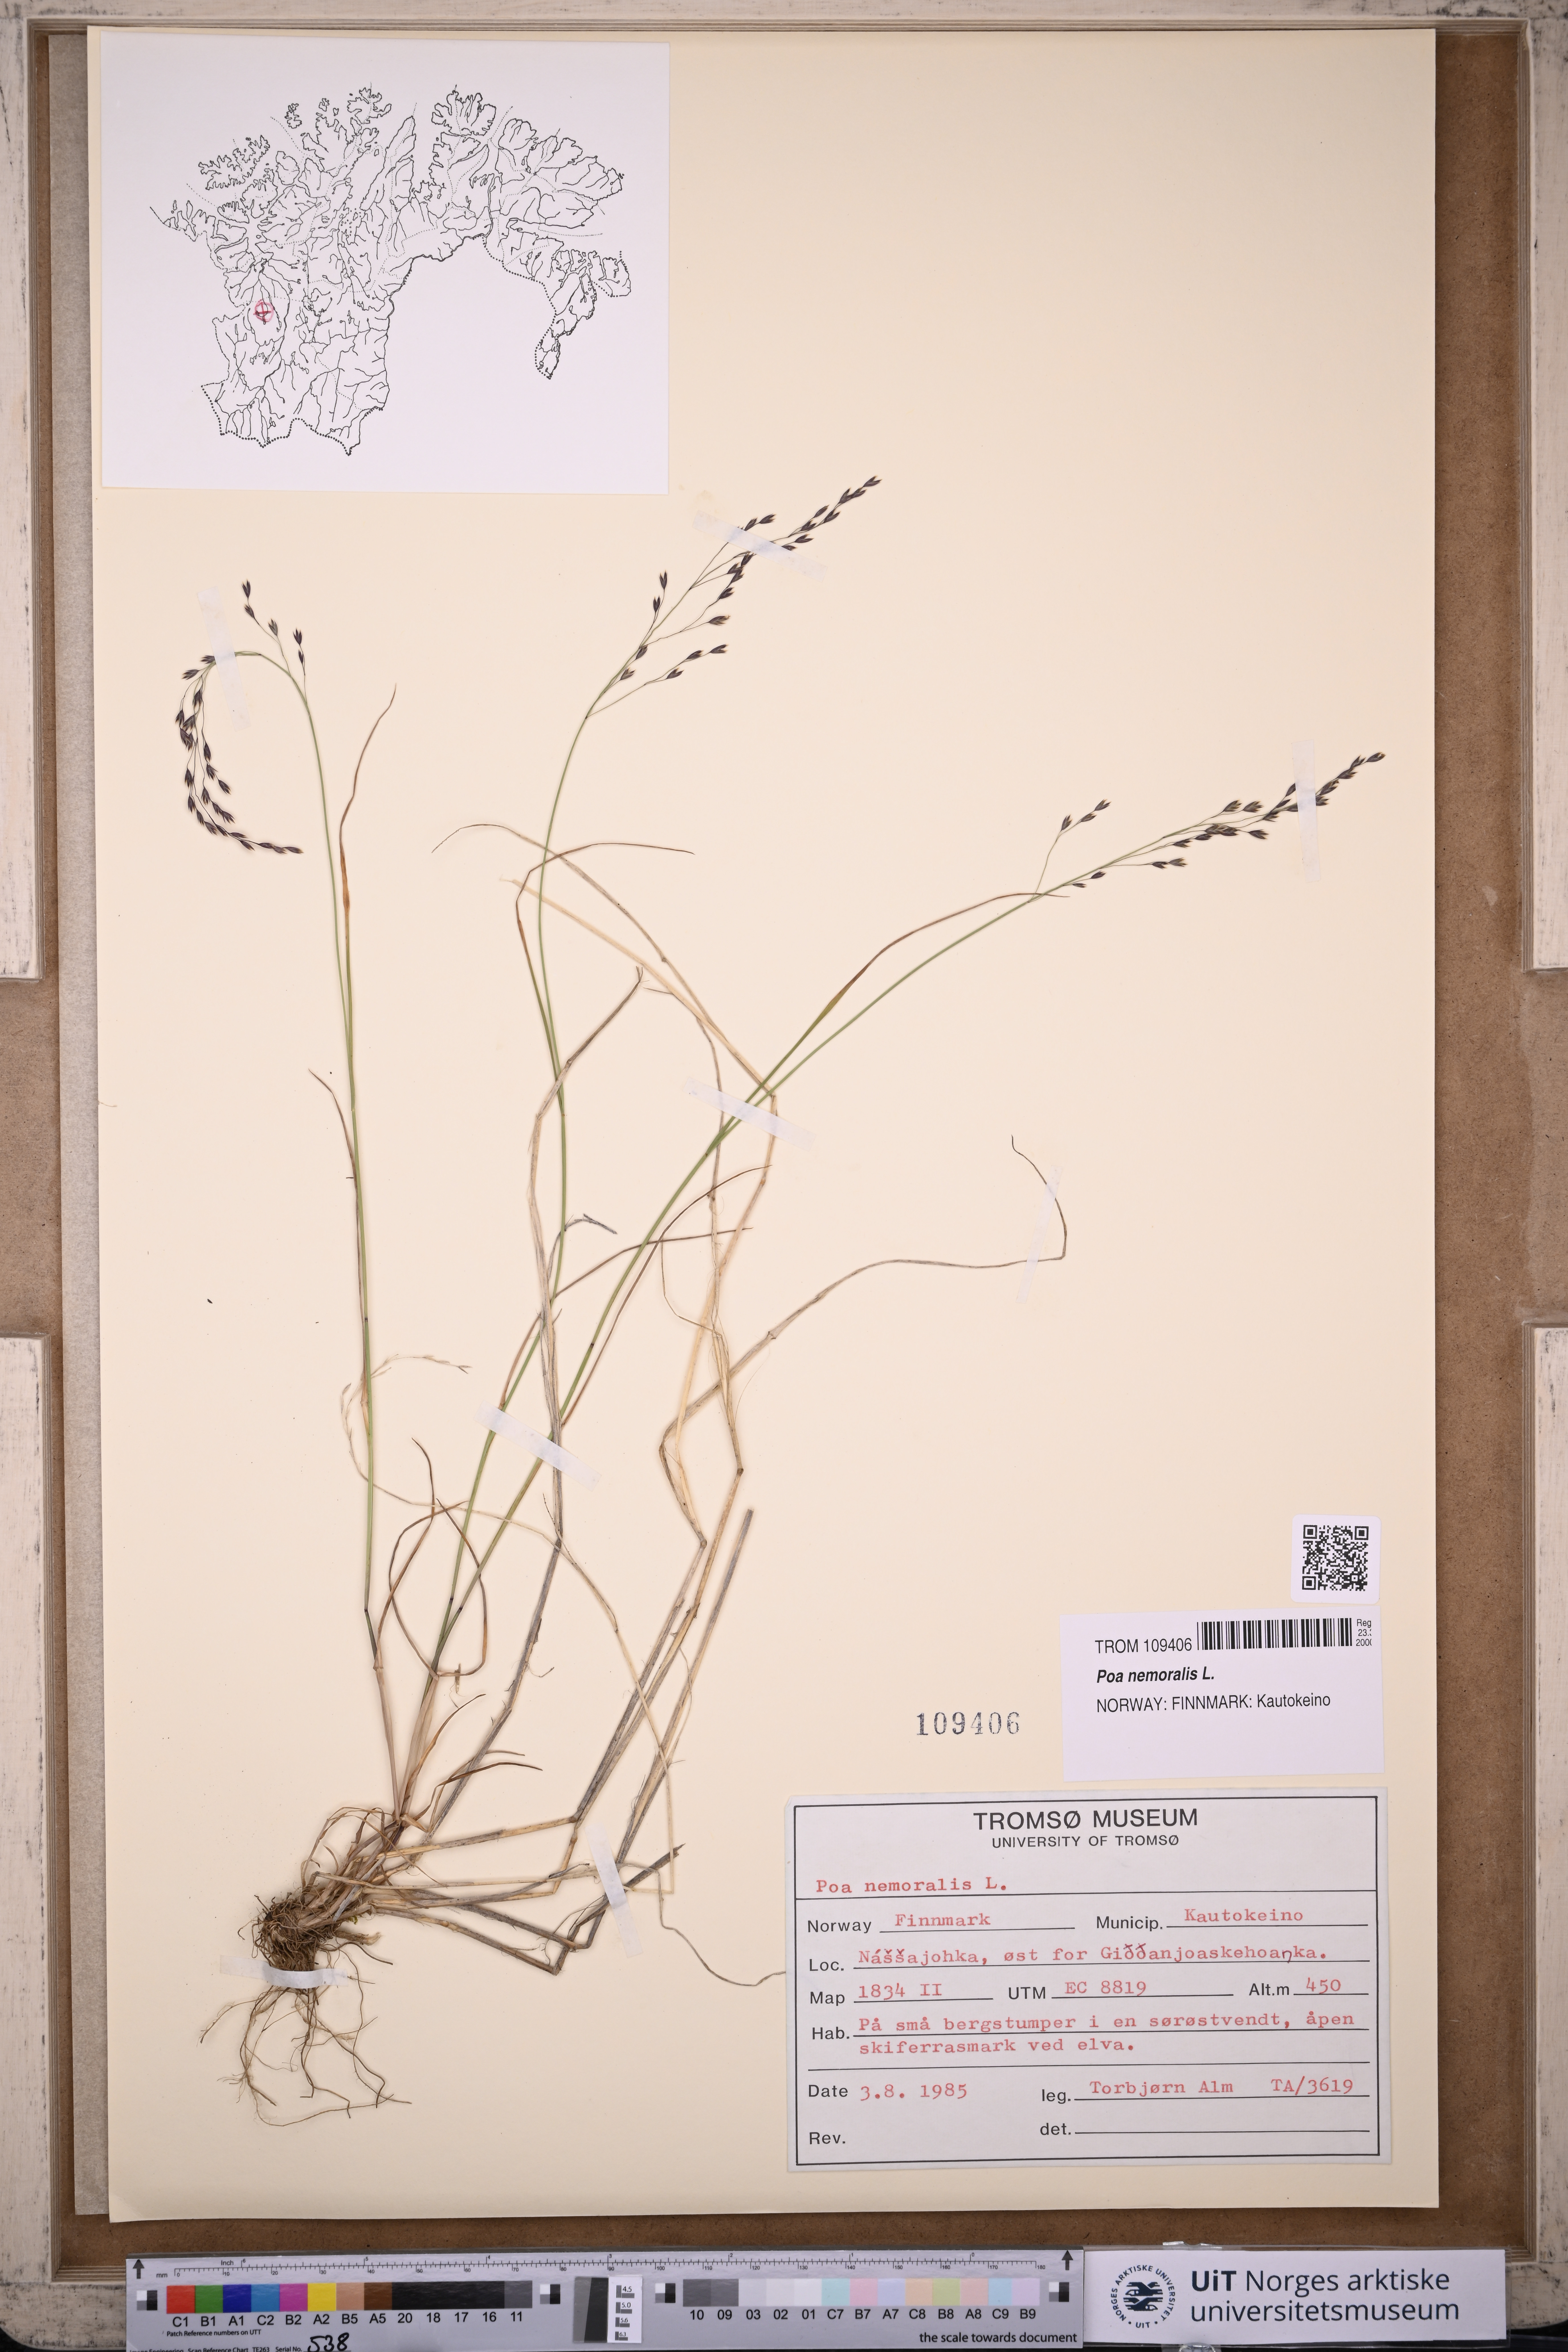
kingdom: Plantae
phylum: Tracheophyta
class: Liliopsida
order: Poales
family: Poaceae
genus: Poa
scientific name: Poa nemoralis
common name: Wood bluegrass
